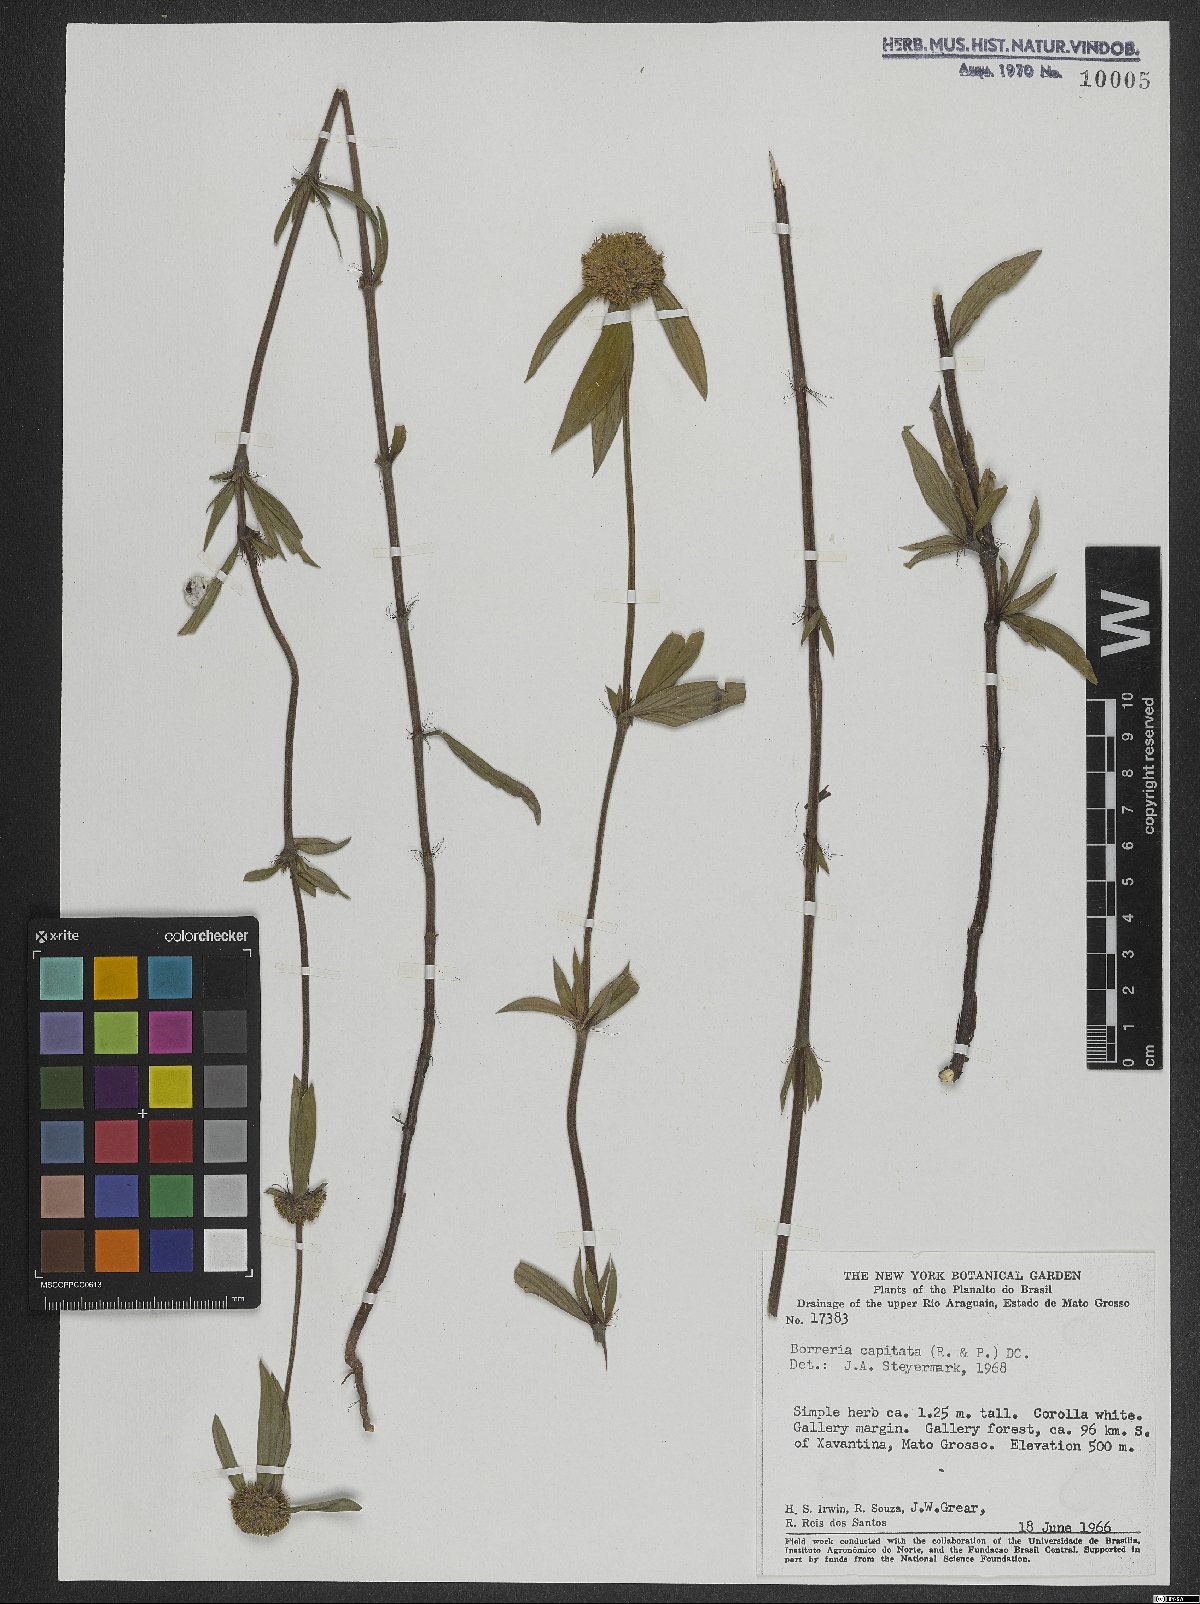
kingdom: Plantae
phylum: Tracheophyta
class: Magnoliopsida
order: Gentianales
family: Rubiaceae
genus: Spermacoce
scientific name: Spermacoce capitata
